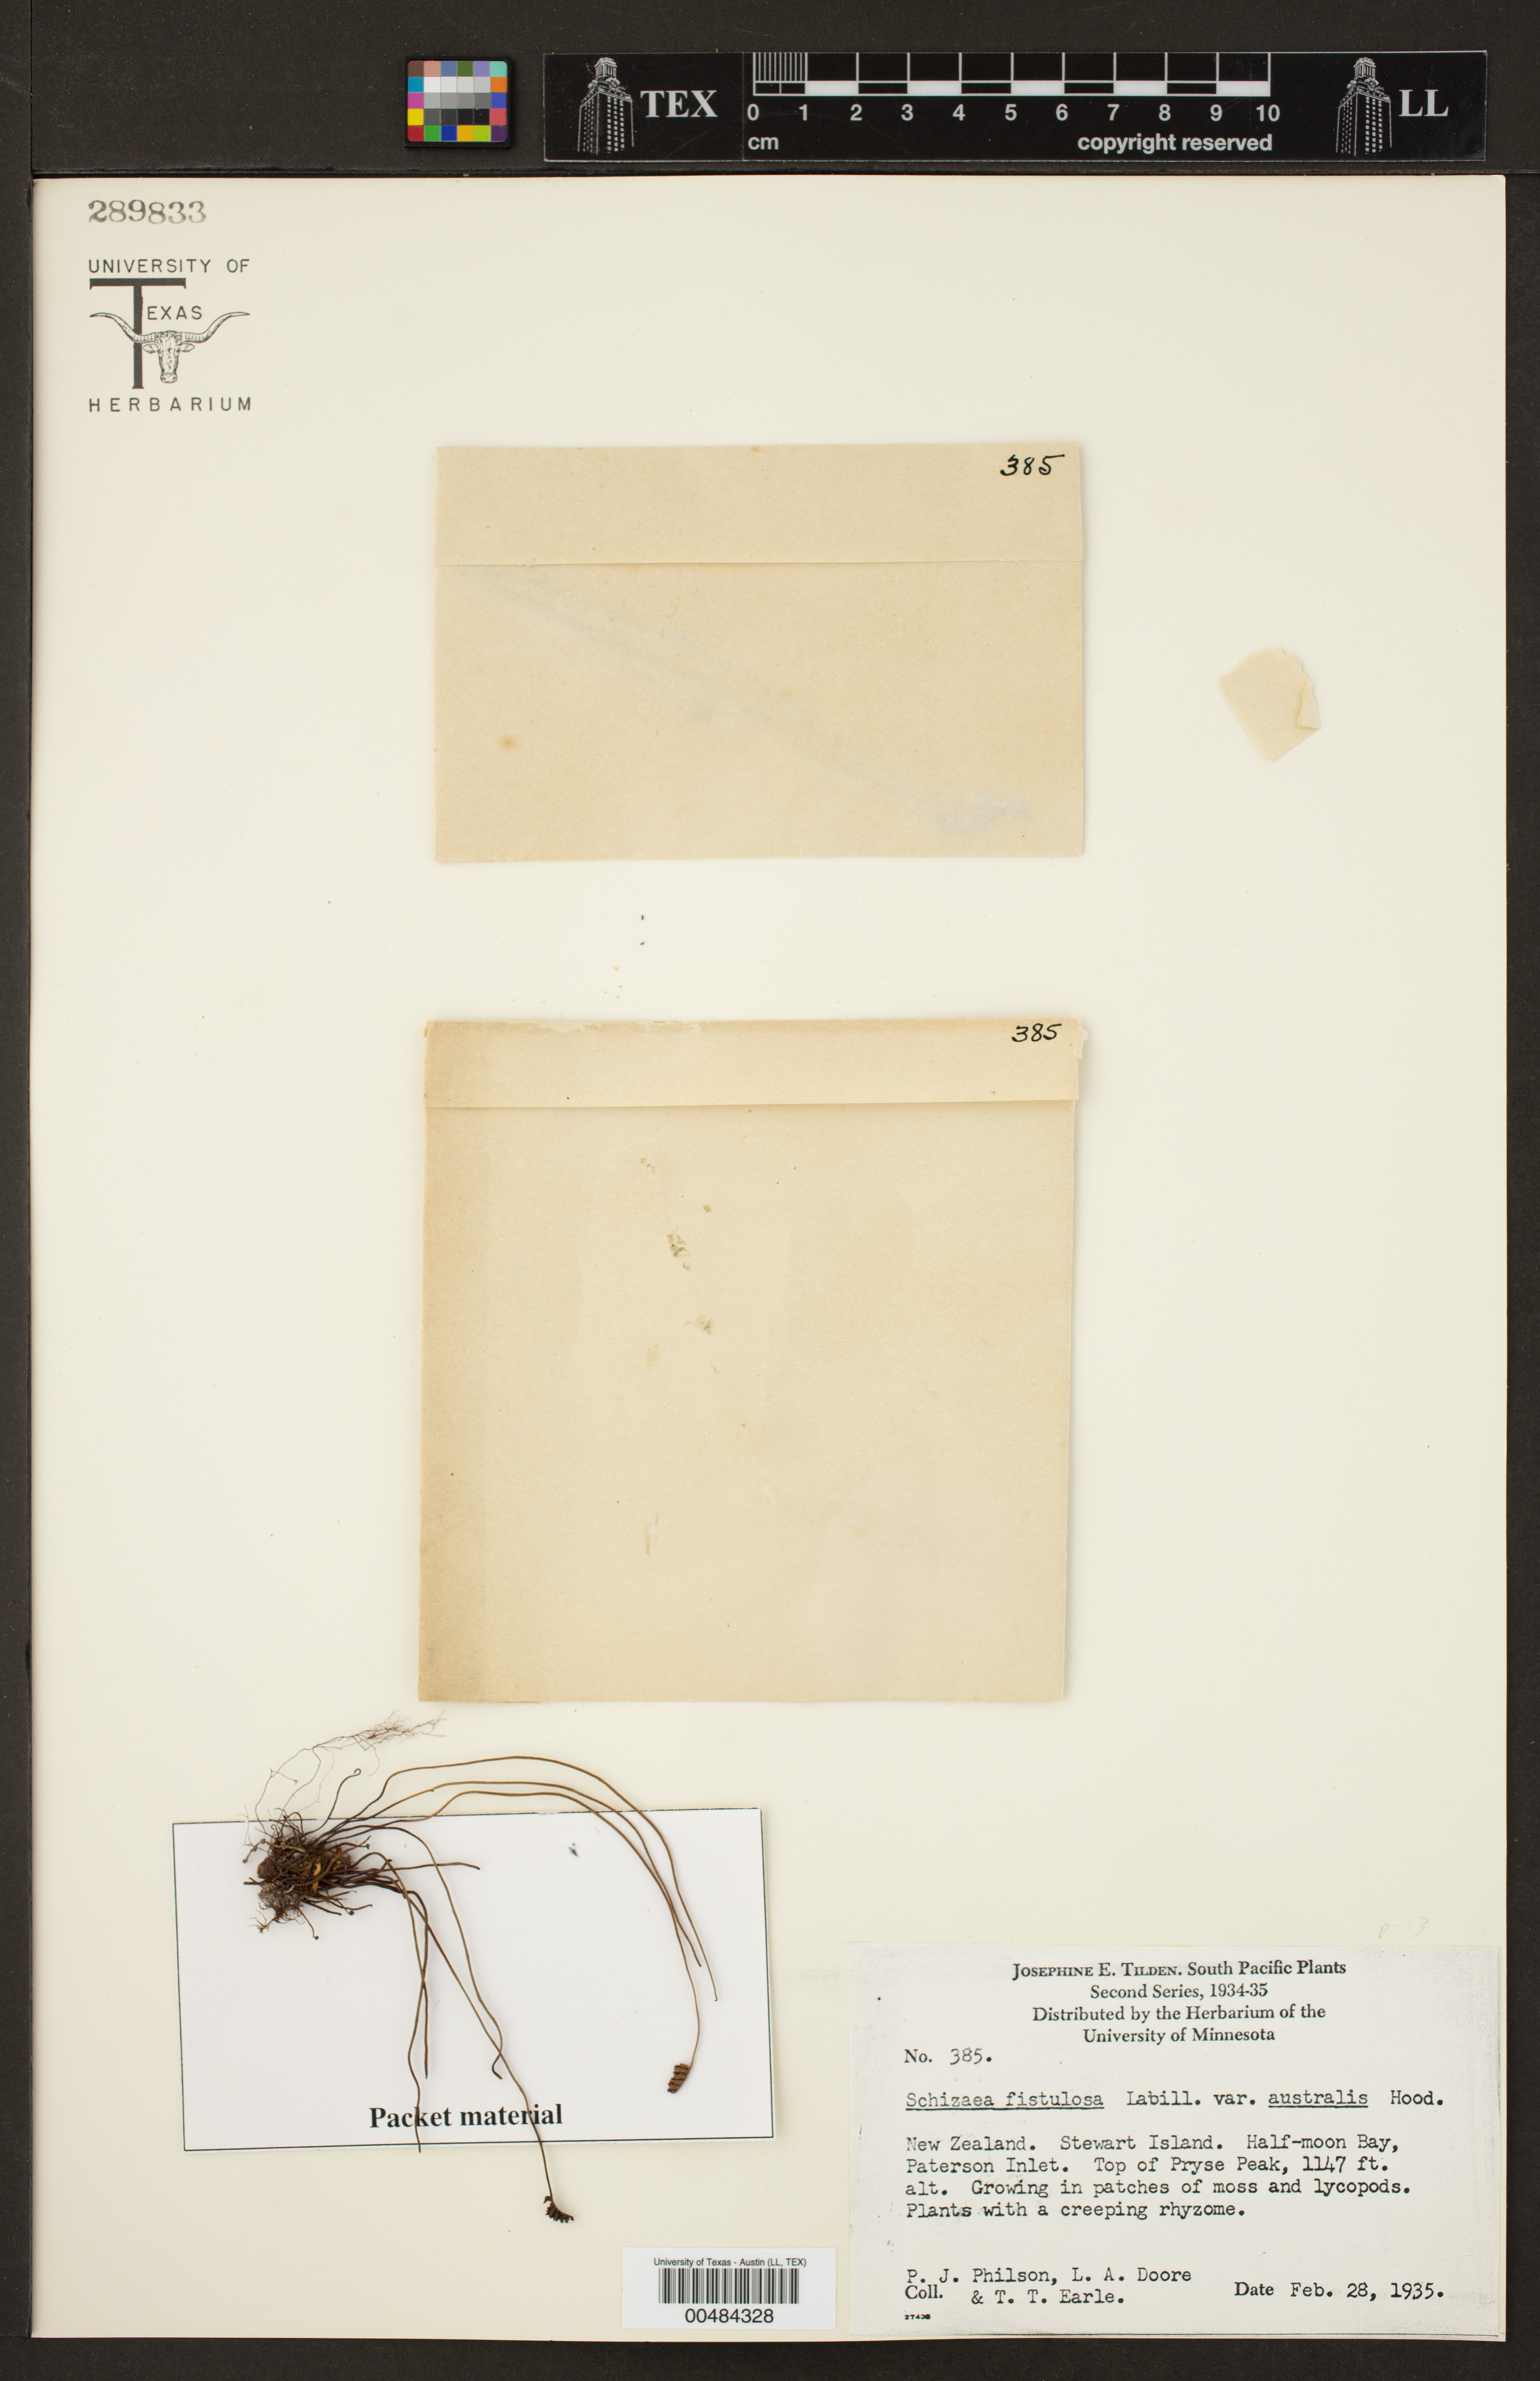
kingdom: Plantae
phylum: Tracheophyta
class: Polypodiopsida
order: Schizaeales
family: Schizaeaceae
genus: Microschizaea
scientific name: Microschizaea fistulosa
